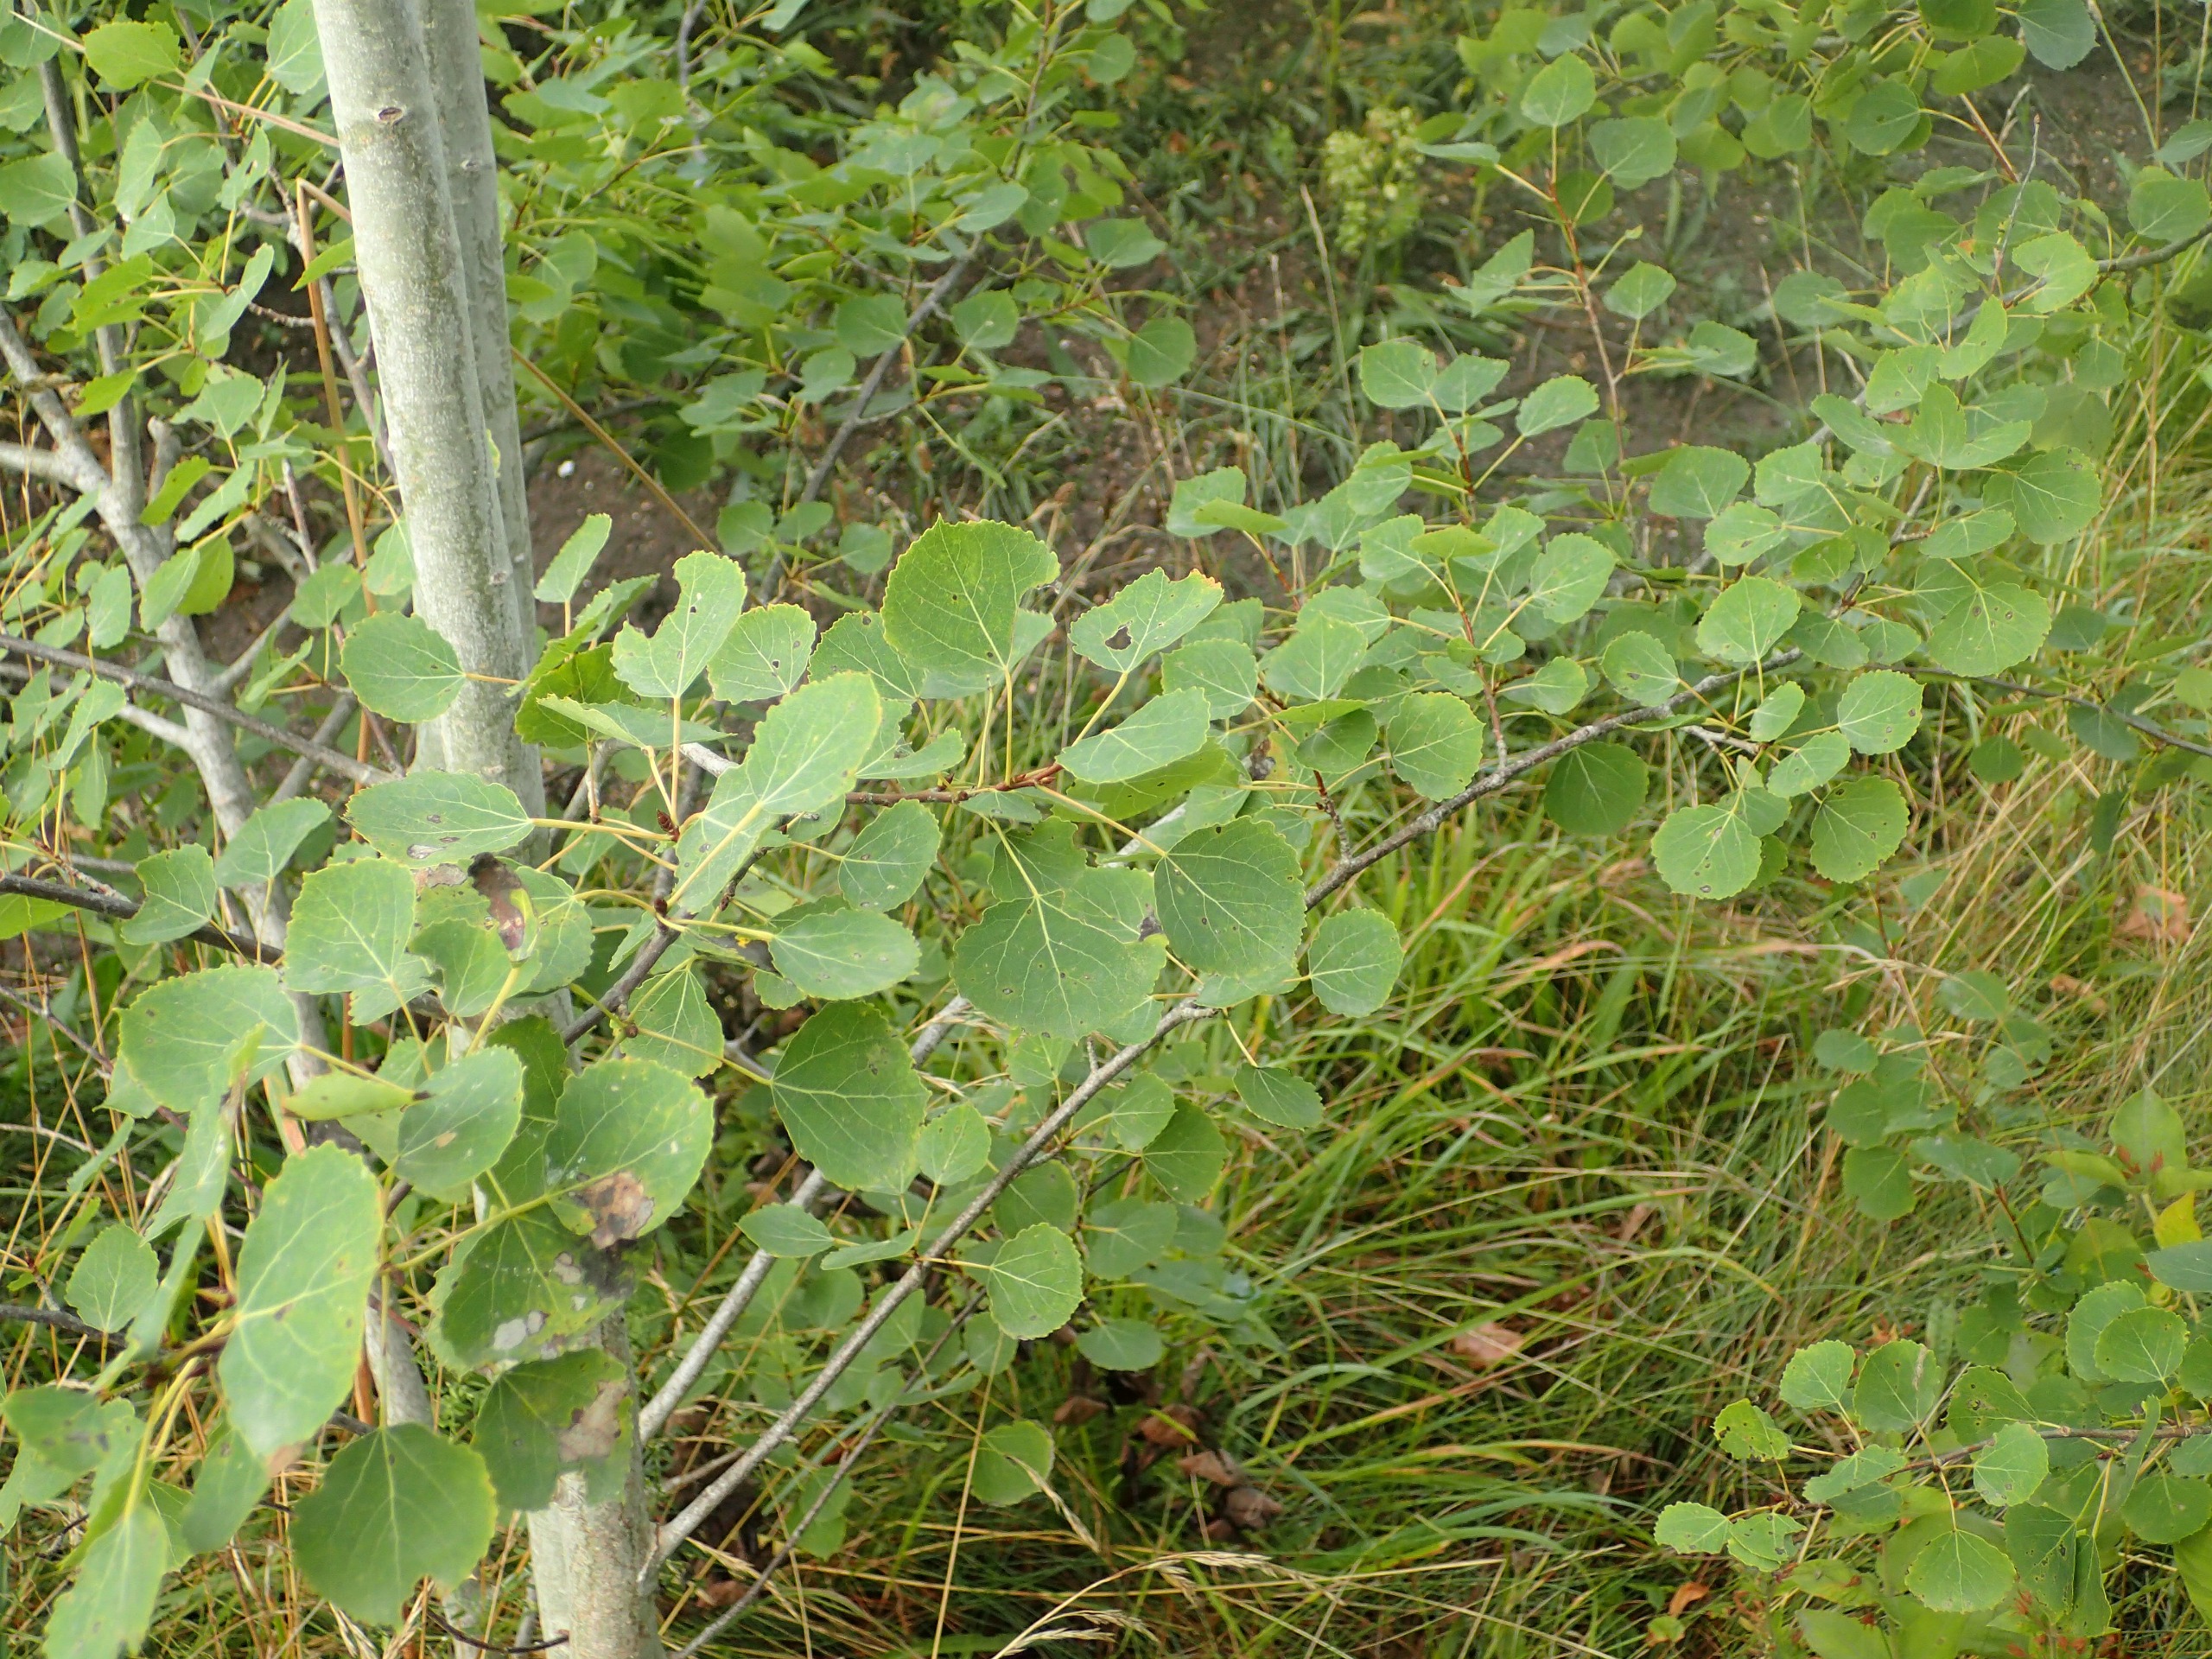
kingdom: Plantae
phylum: Tracheophyta
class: Magnoliopsida
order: Malpighiales
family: Salicaceae
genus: Populus
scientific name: Populus tremula
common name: Bævreasp
